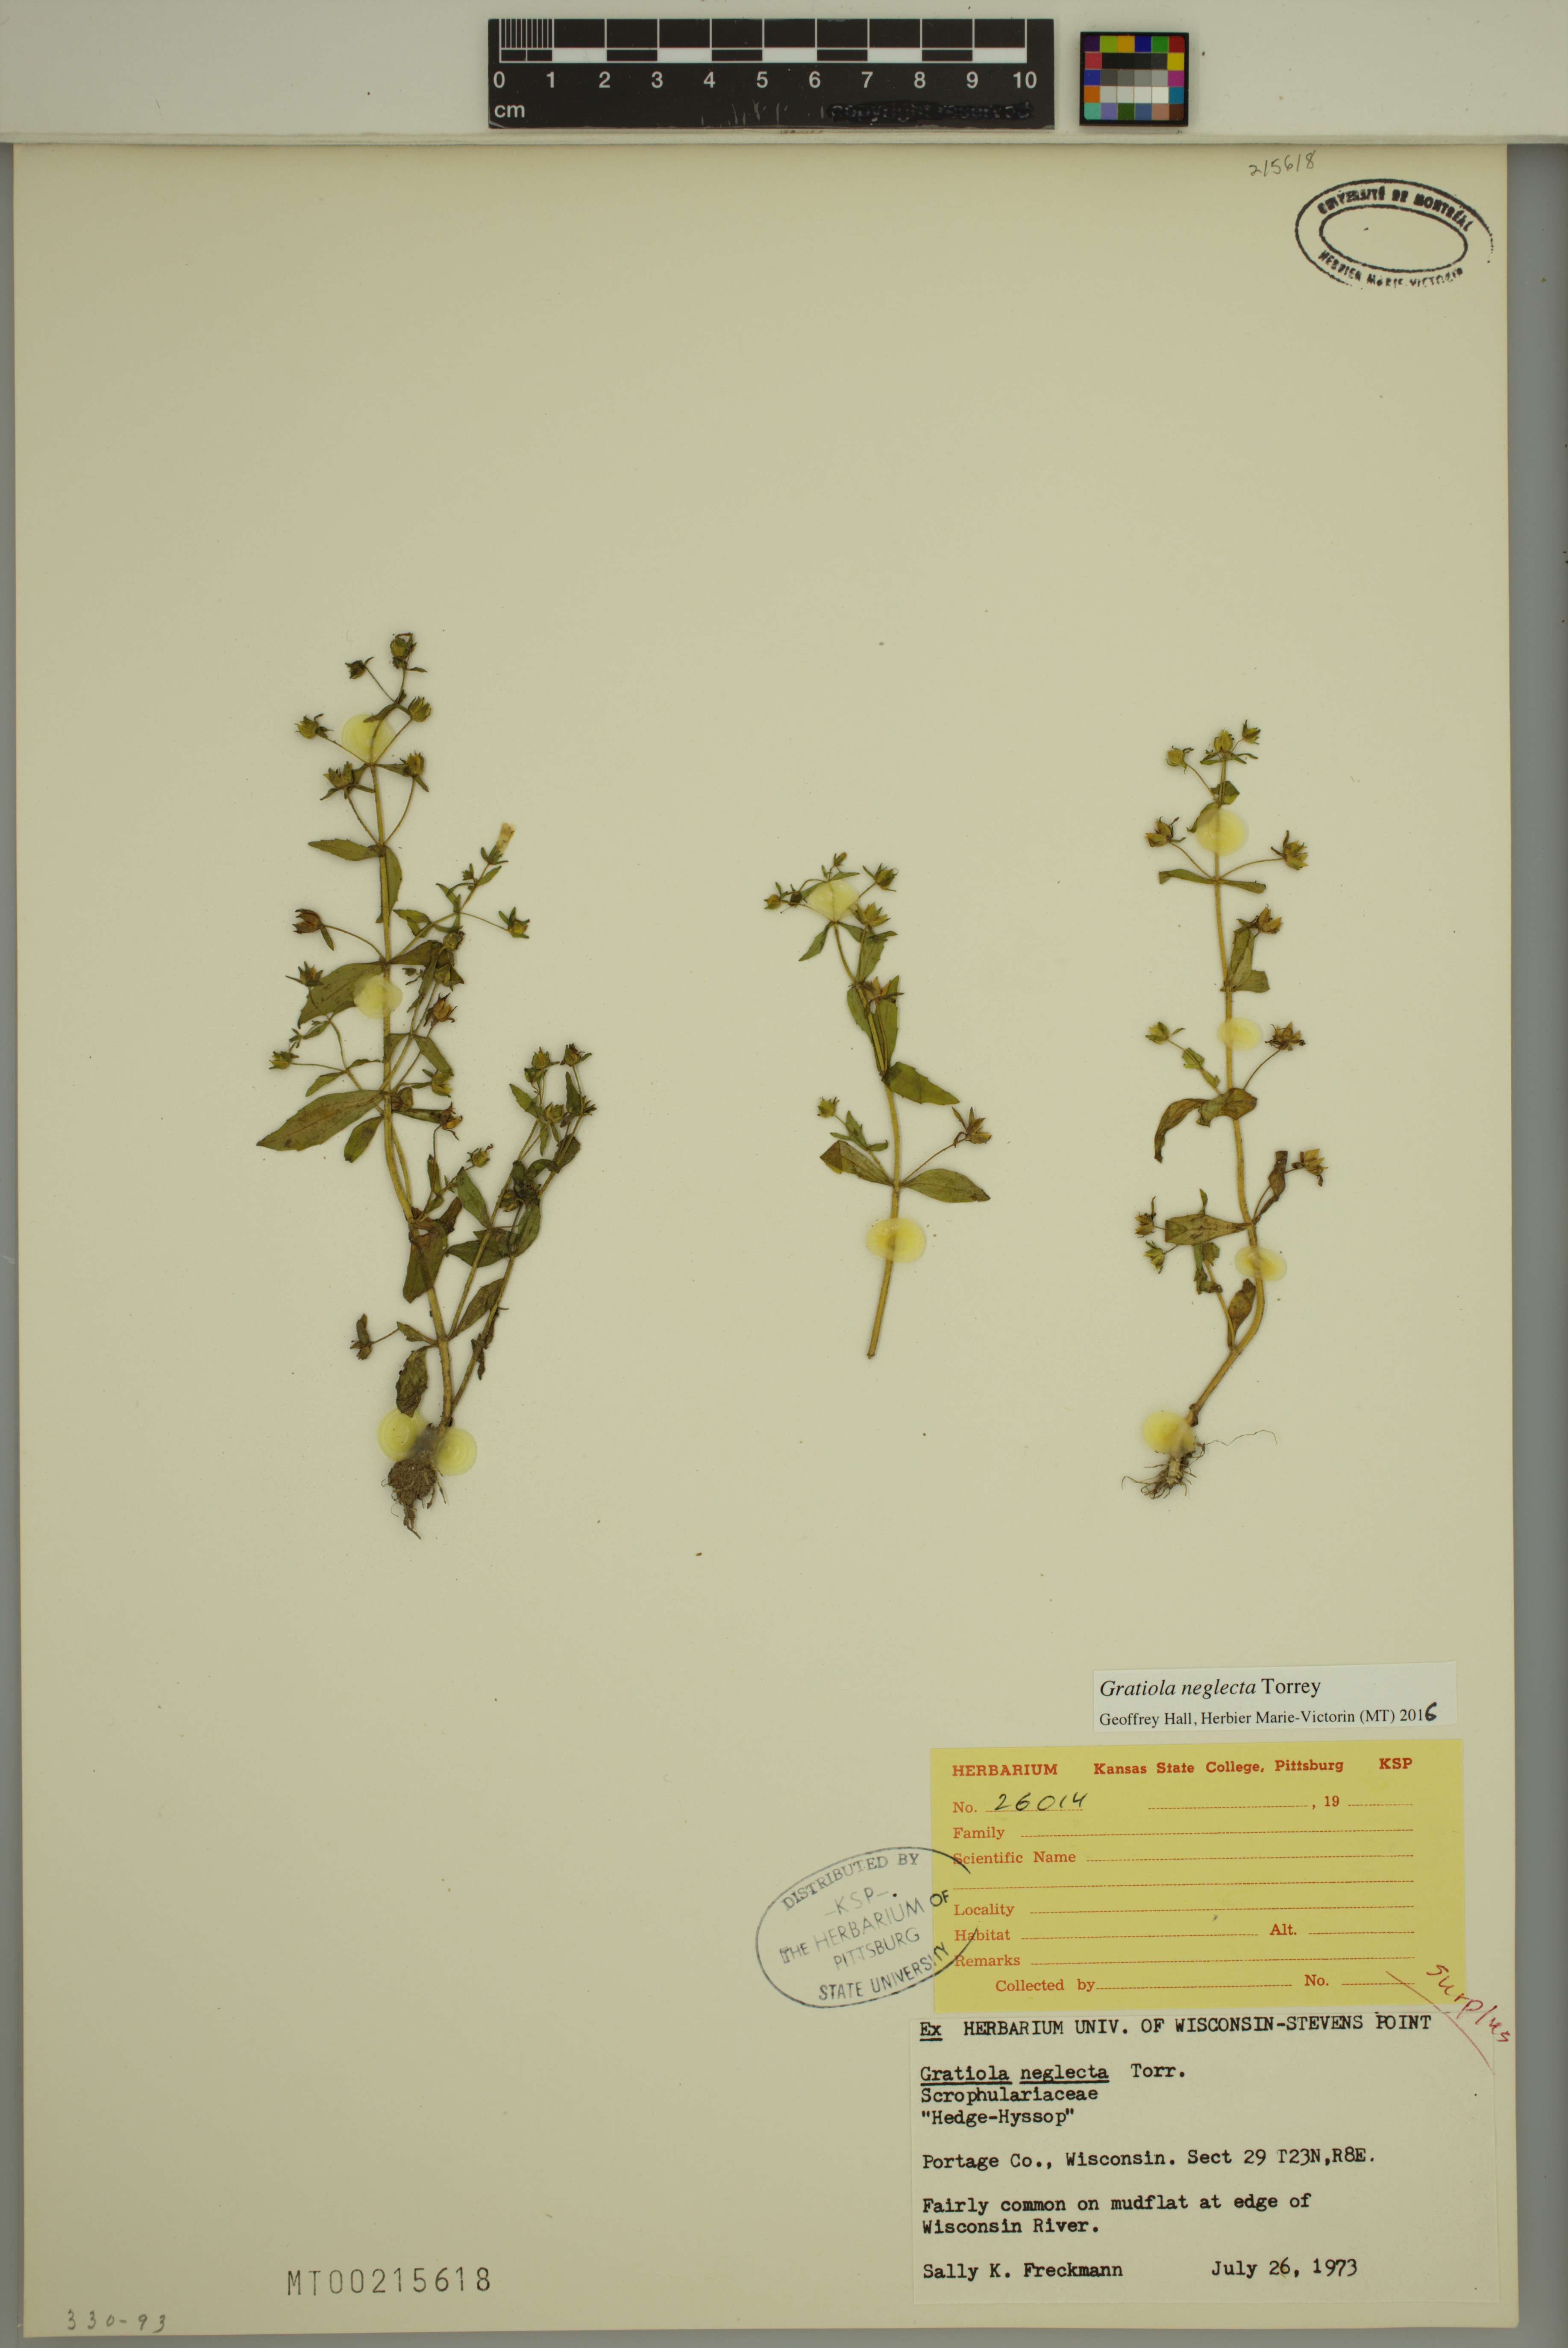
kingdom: Plantae
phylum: Tracheophyta
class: Magnoliopsida
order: Lamiales
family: Plantaginaceae
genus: Gratiola
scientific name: Gratiola neglecta
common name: American hedge-hyssop
